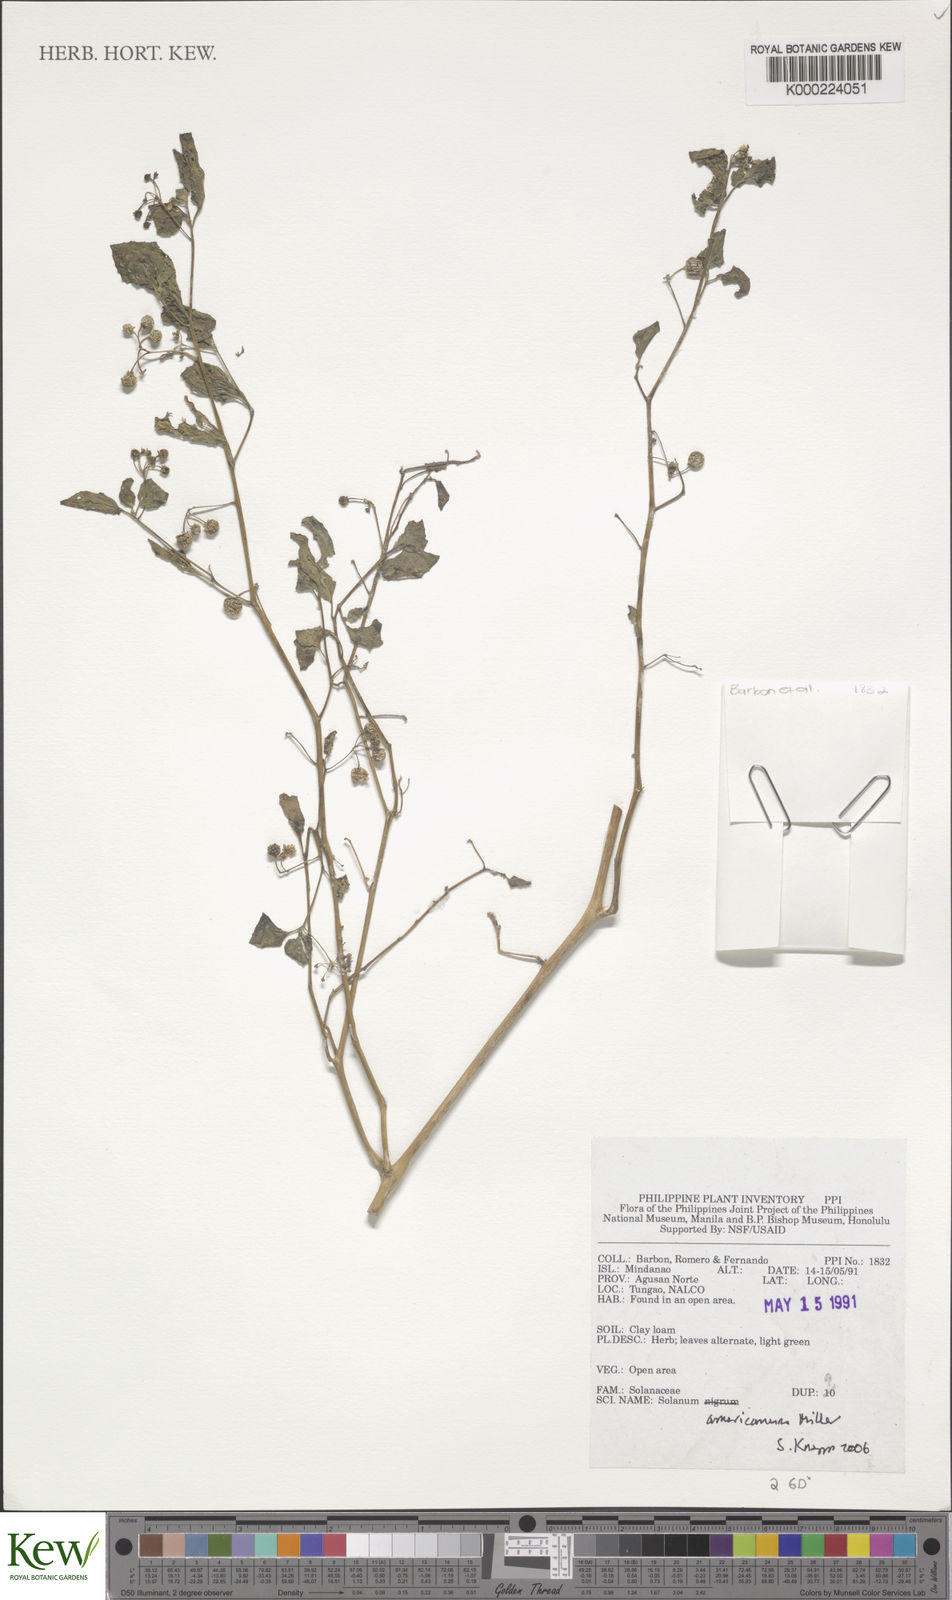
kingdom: Plantae
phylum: Tracheophyta
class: Magnoliopsida
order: Solanales
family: Solanaceae
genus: Solanum
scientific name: Solanum americanum
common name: American black nightshade
